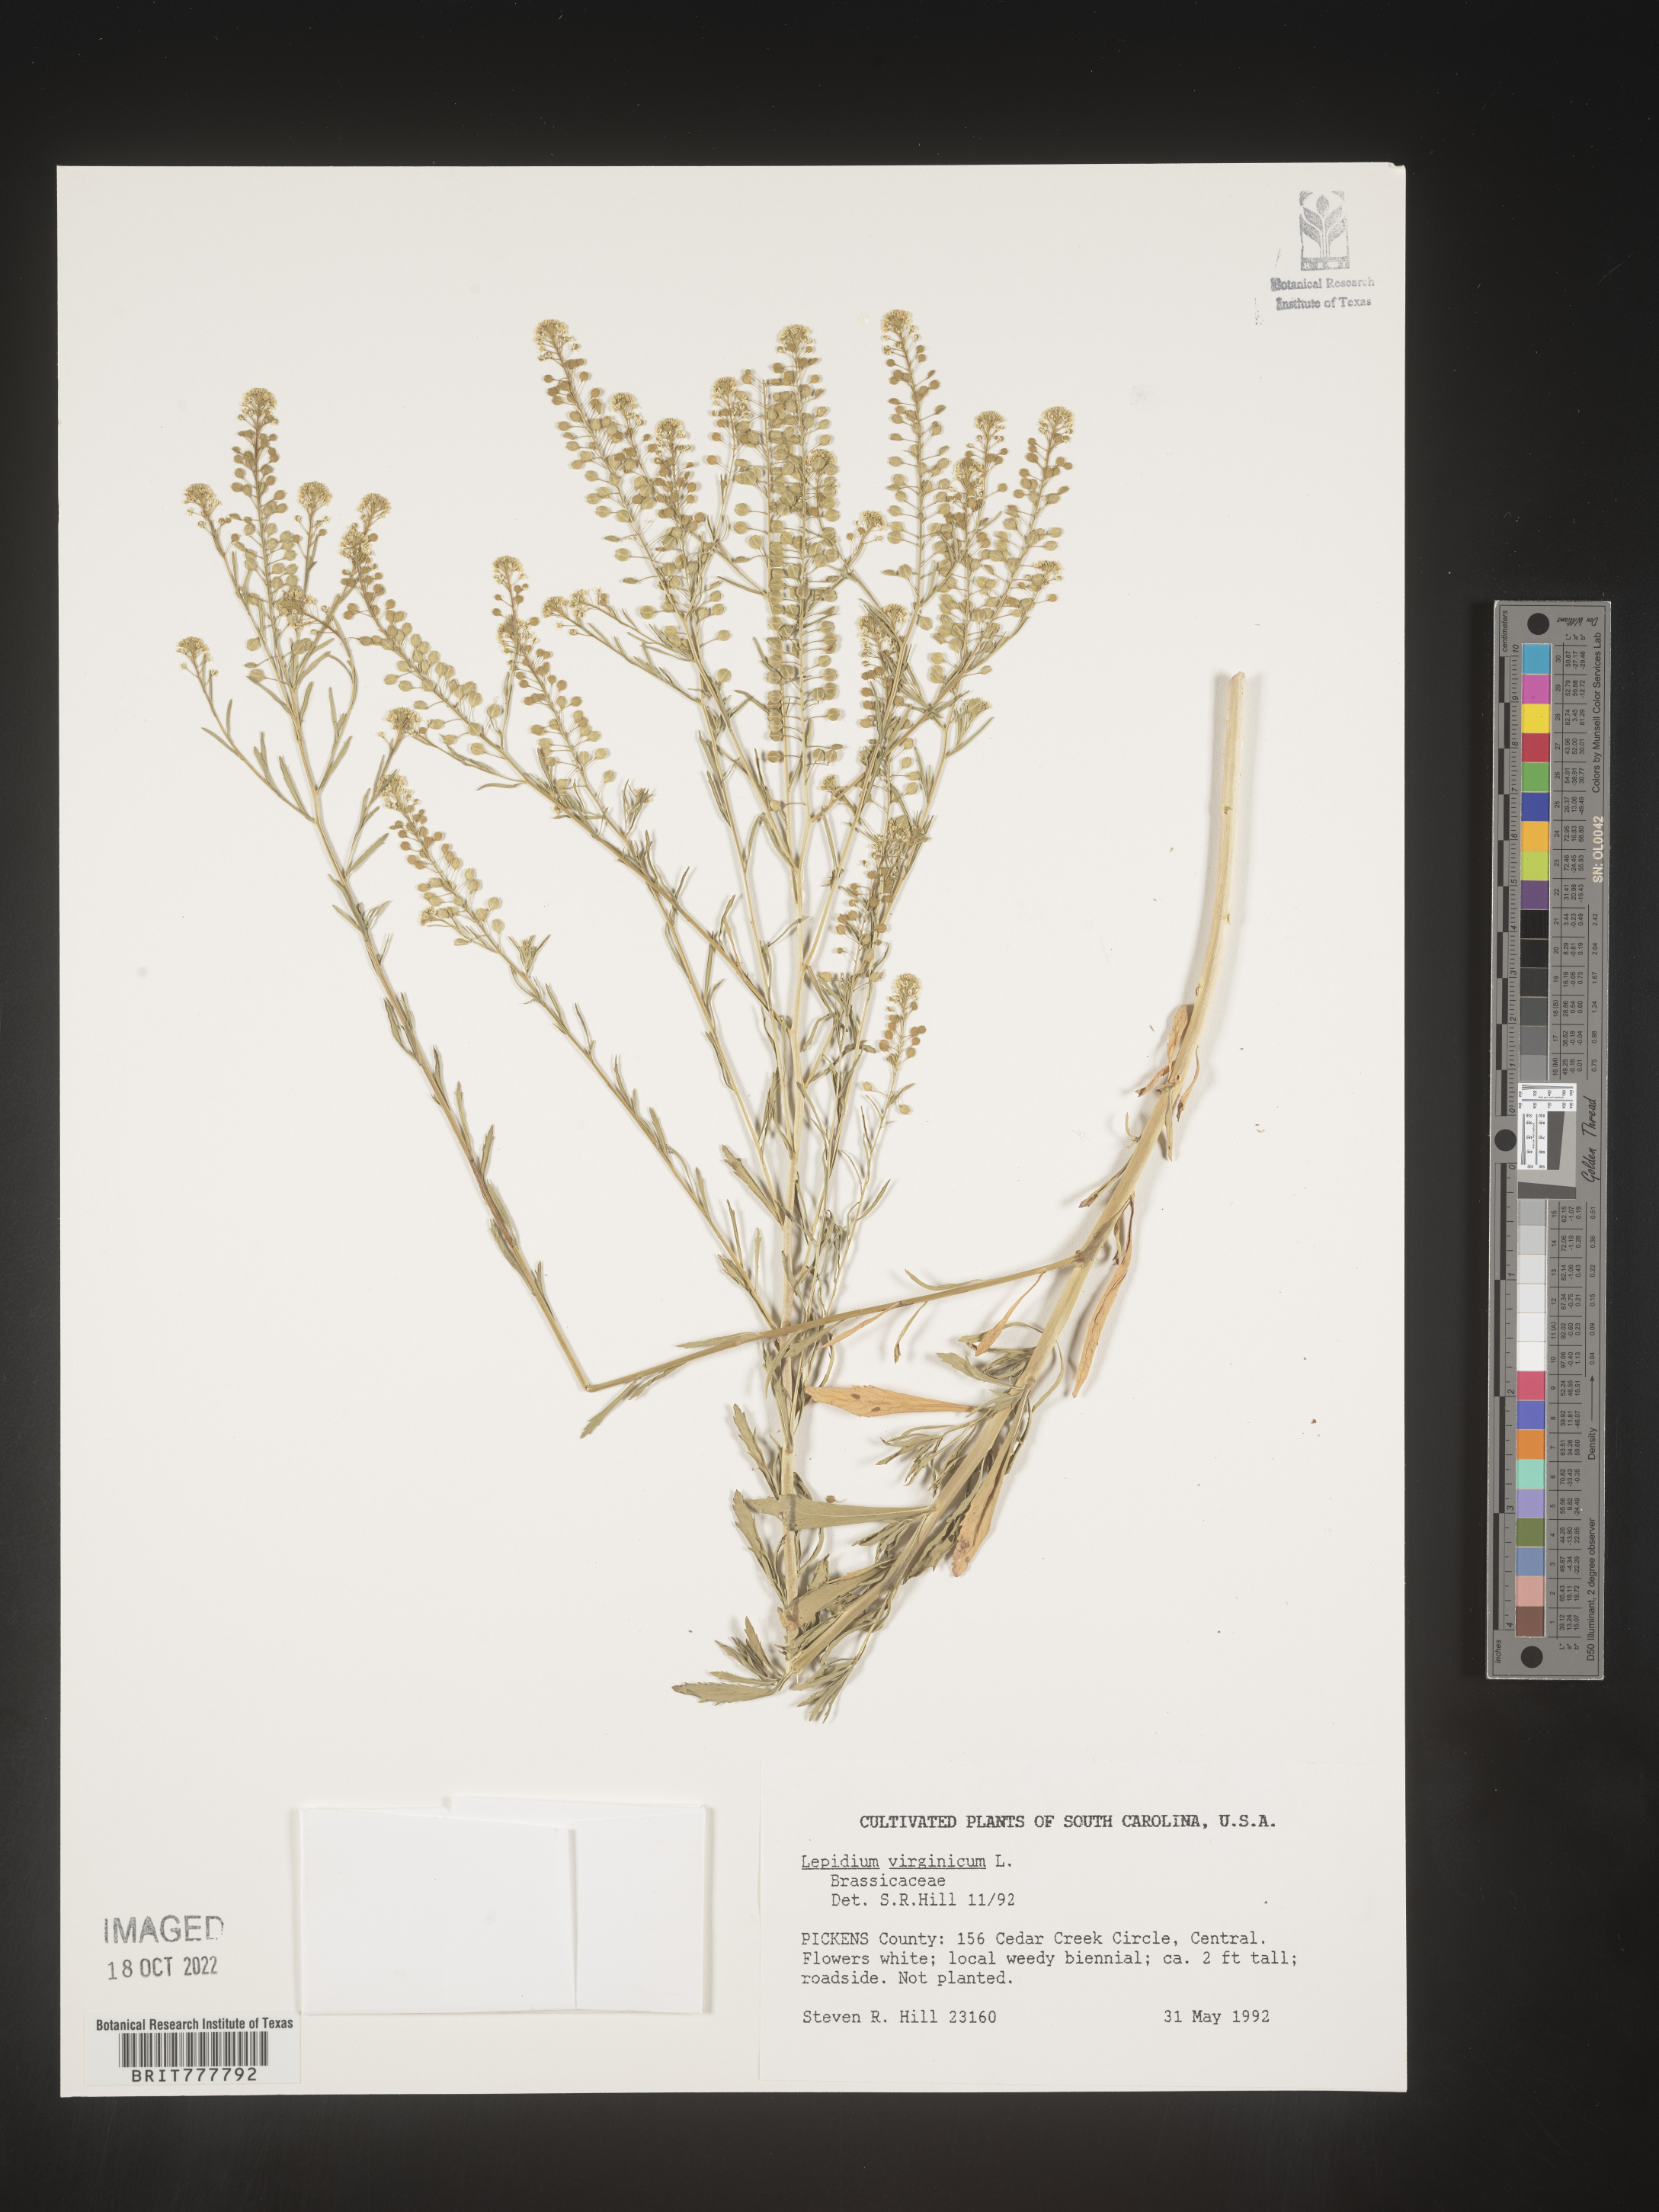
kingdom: Plantae
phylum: Tracheophyta
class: Magnoliopsida
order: Brassicales
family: Brassicaceae
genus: Lepidium
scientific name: Lepidium
